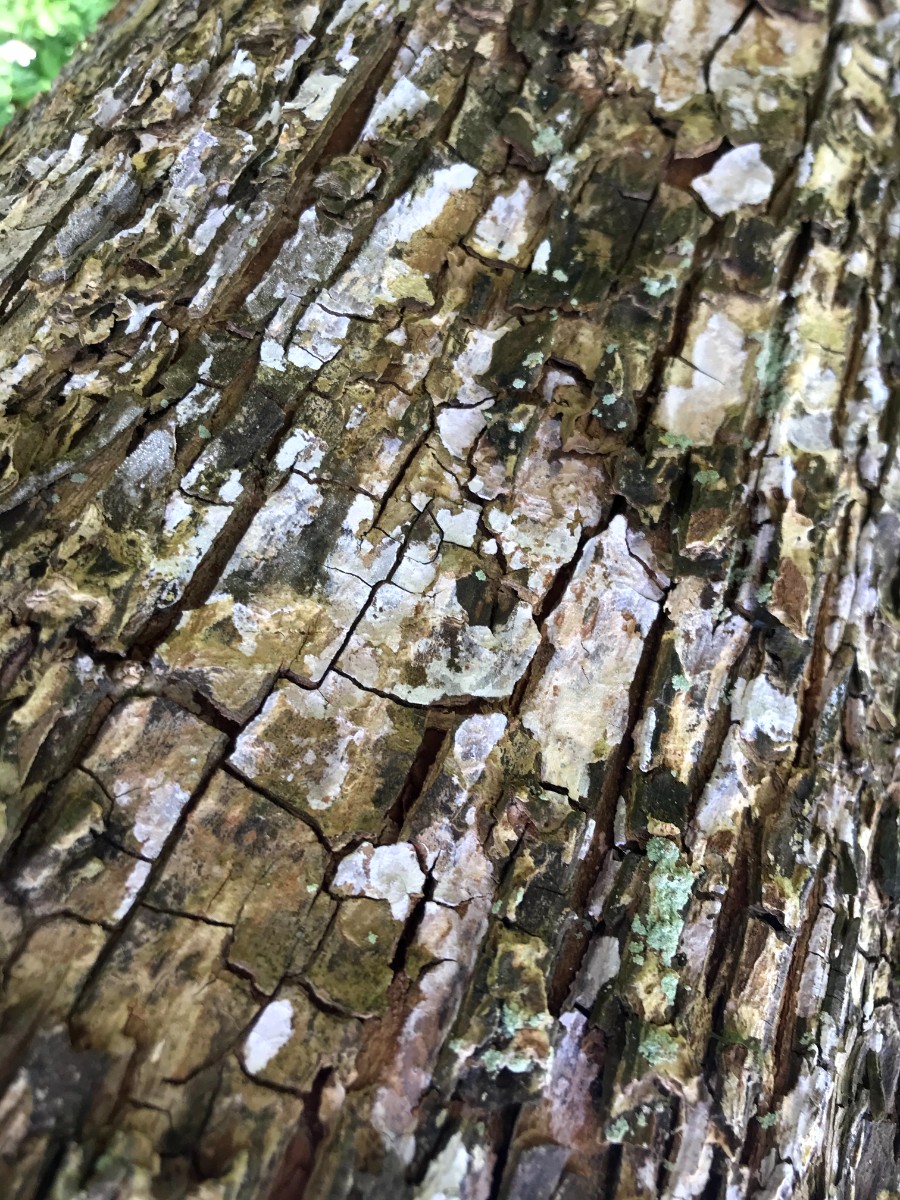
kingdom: Fungi
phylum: Basidiomycota
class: Agaricomycetes
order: Agaricales
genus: Dendrothele
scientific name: Dendrothele acerina
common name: navr-kalkplet
